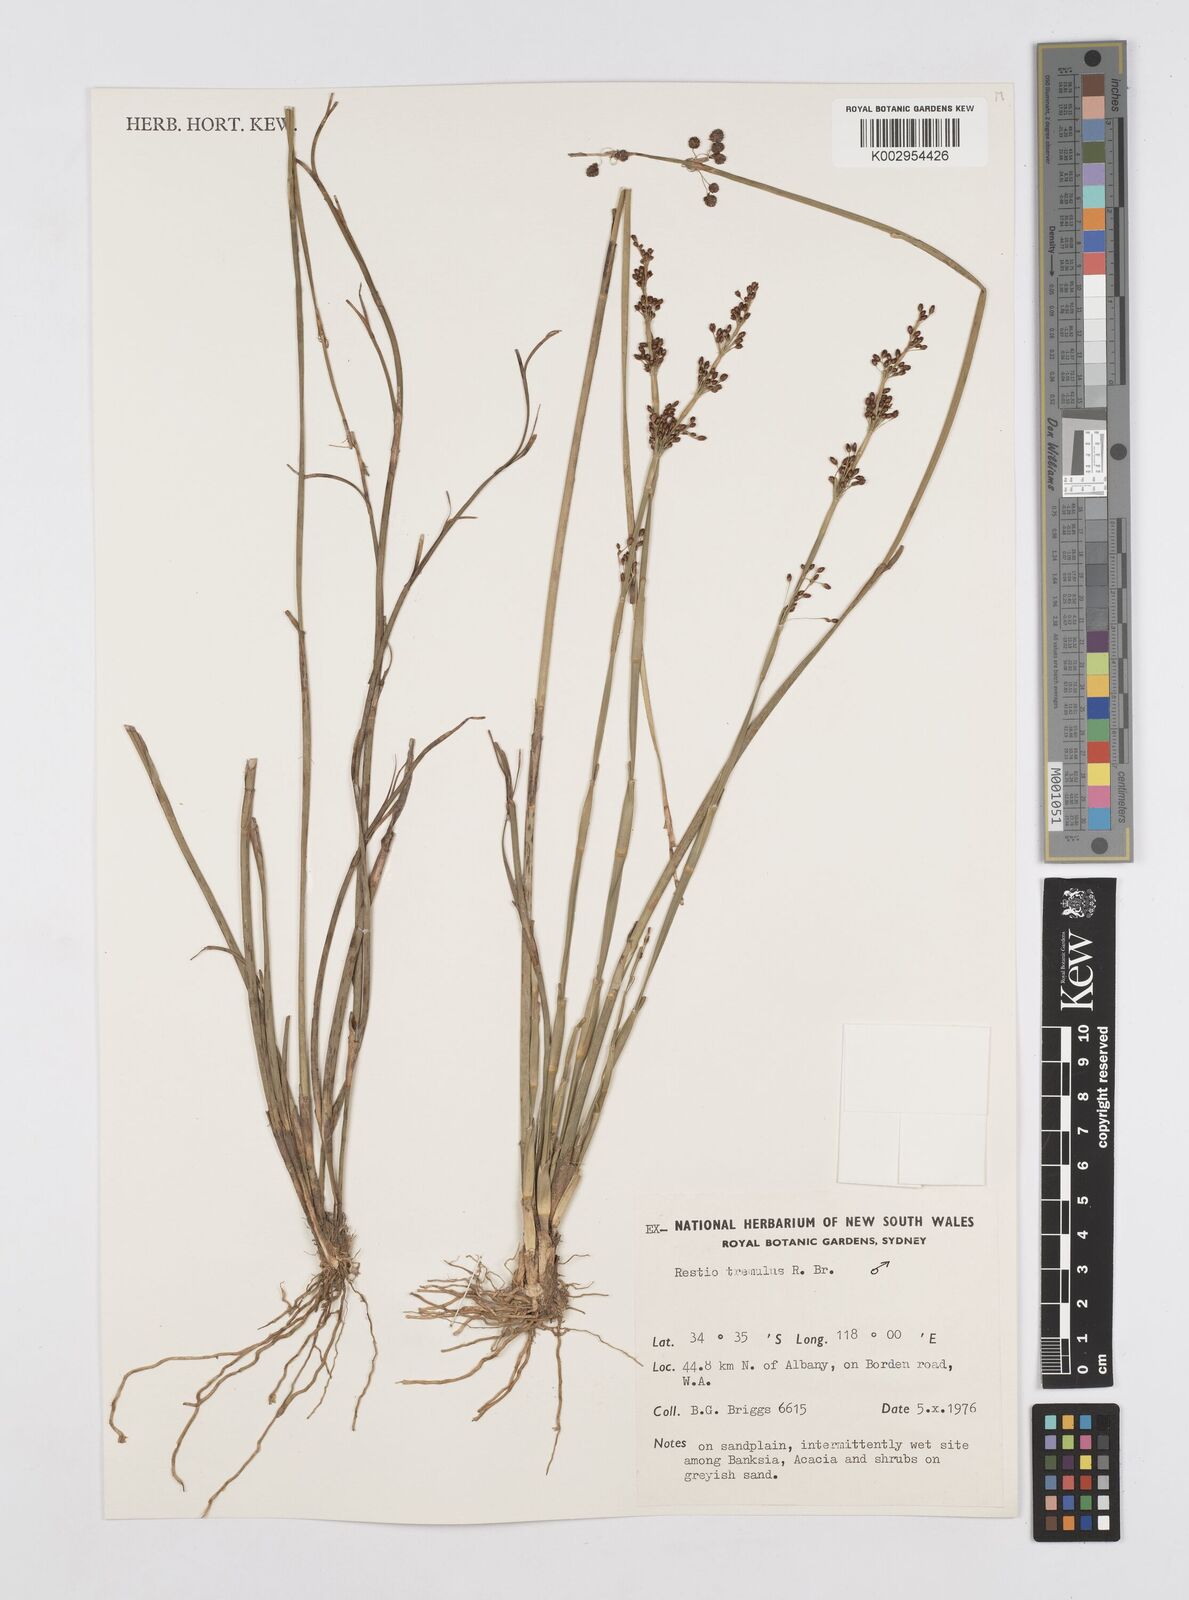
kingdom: Plantae
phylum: Tracheophyta
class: Liliopsida
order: Poales
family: Restionaceae
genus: Tremulina
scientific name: Tremulina tremula
